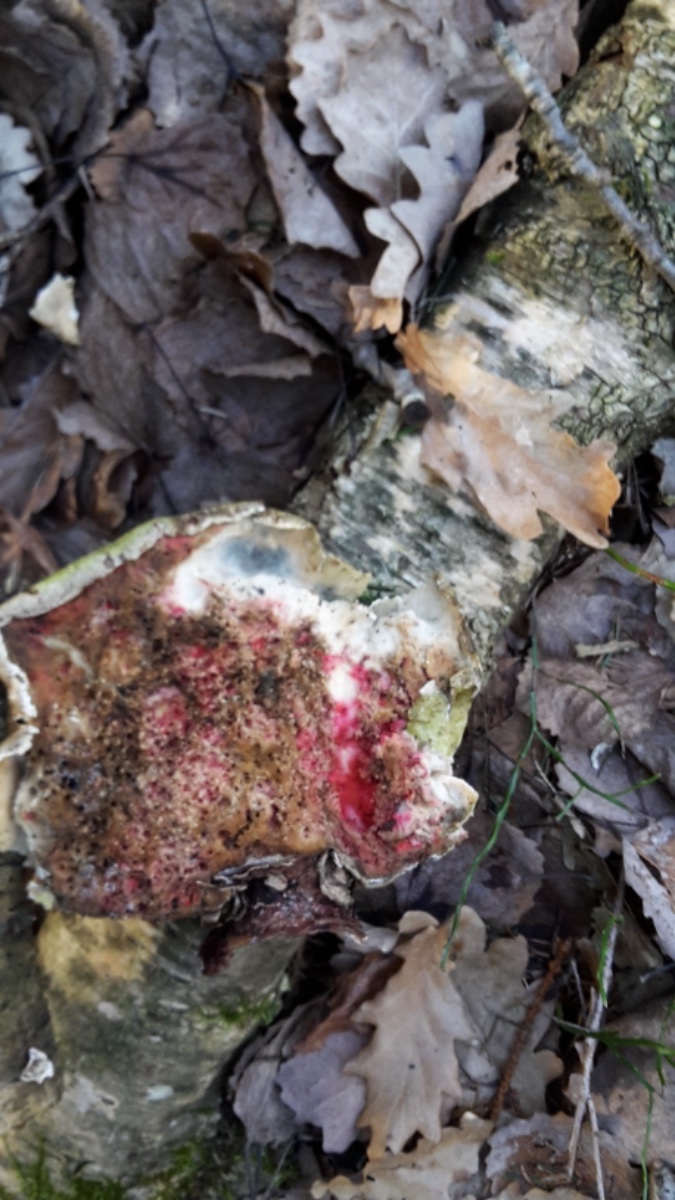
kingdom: Fungi
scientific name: Fungi
